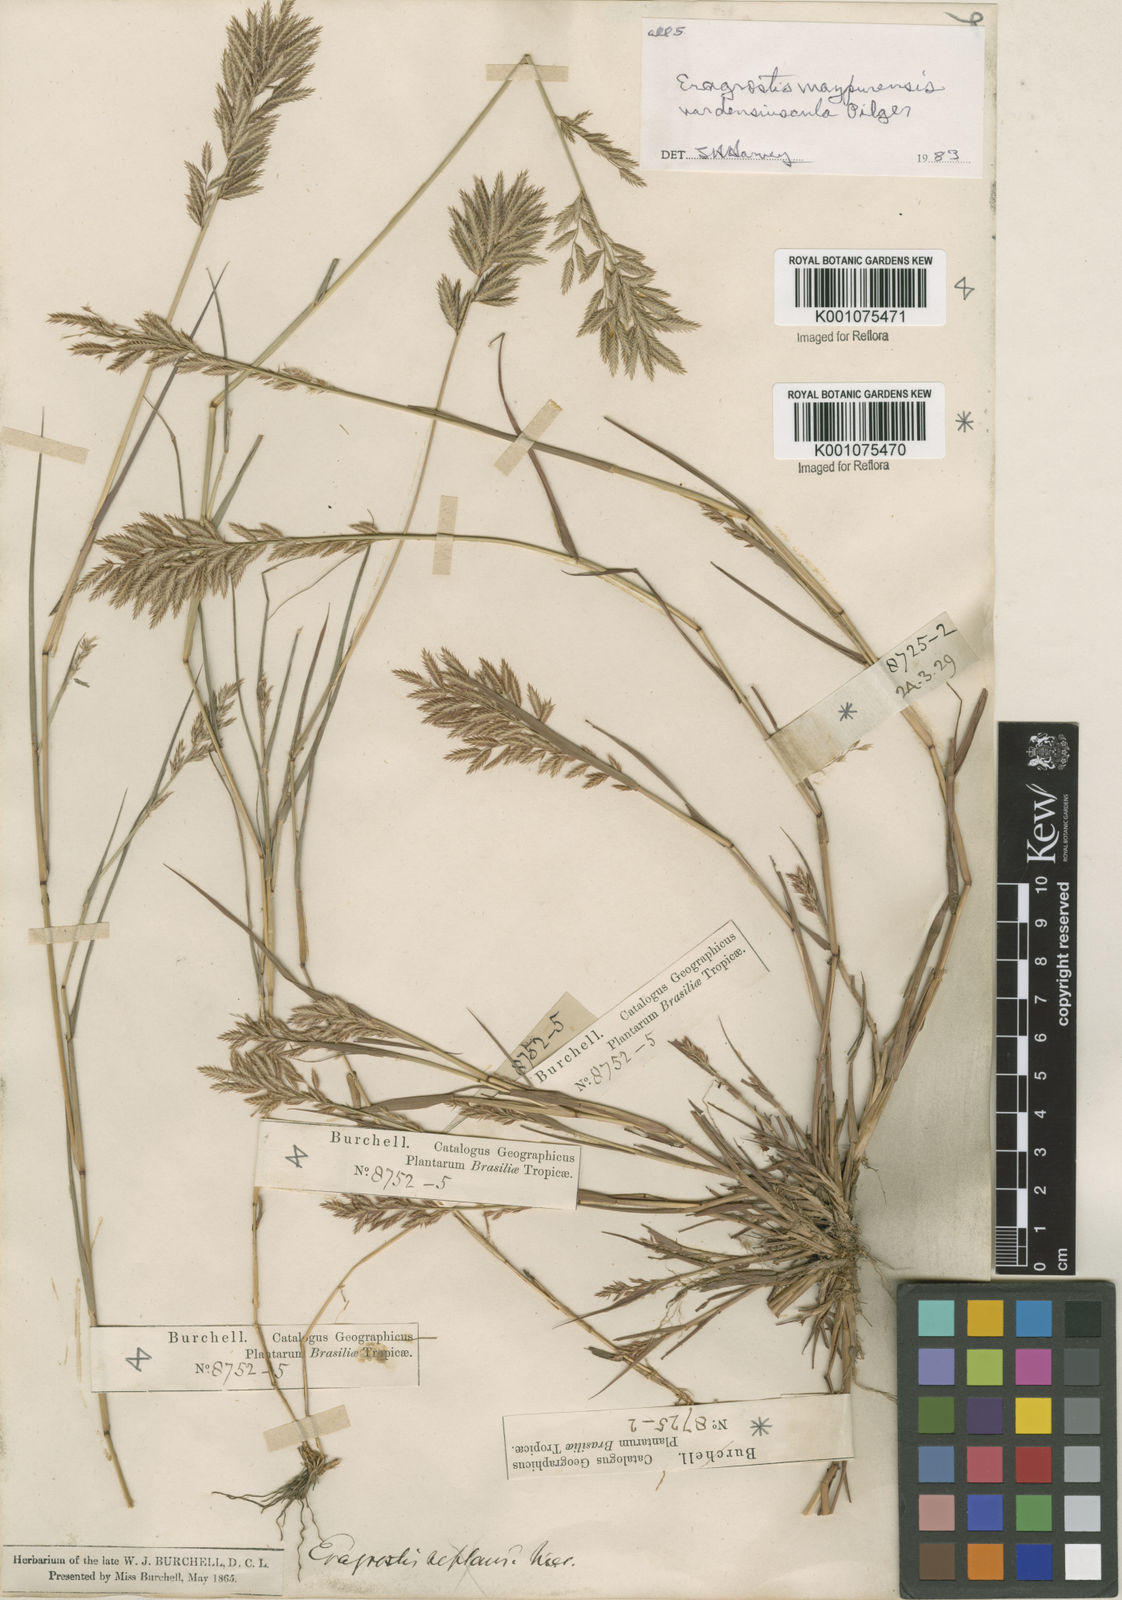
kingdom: Plantae
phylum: Tracheophyta
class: Liliopsida
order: Poales
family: Poaceae
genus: Eragrostis
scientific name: Eragrostis maypurensis
